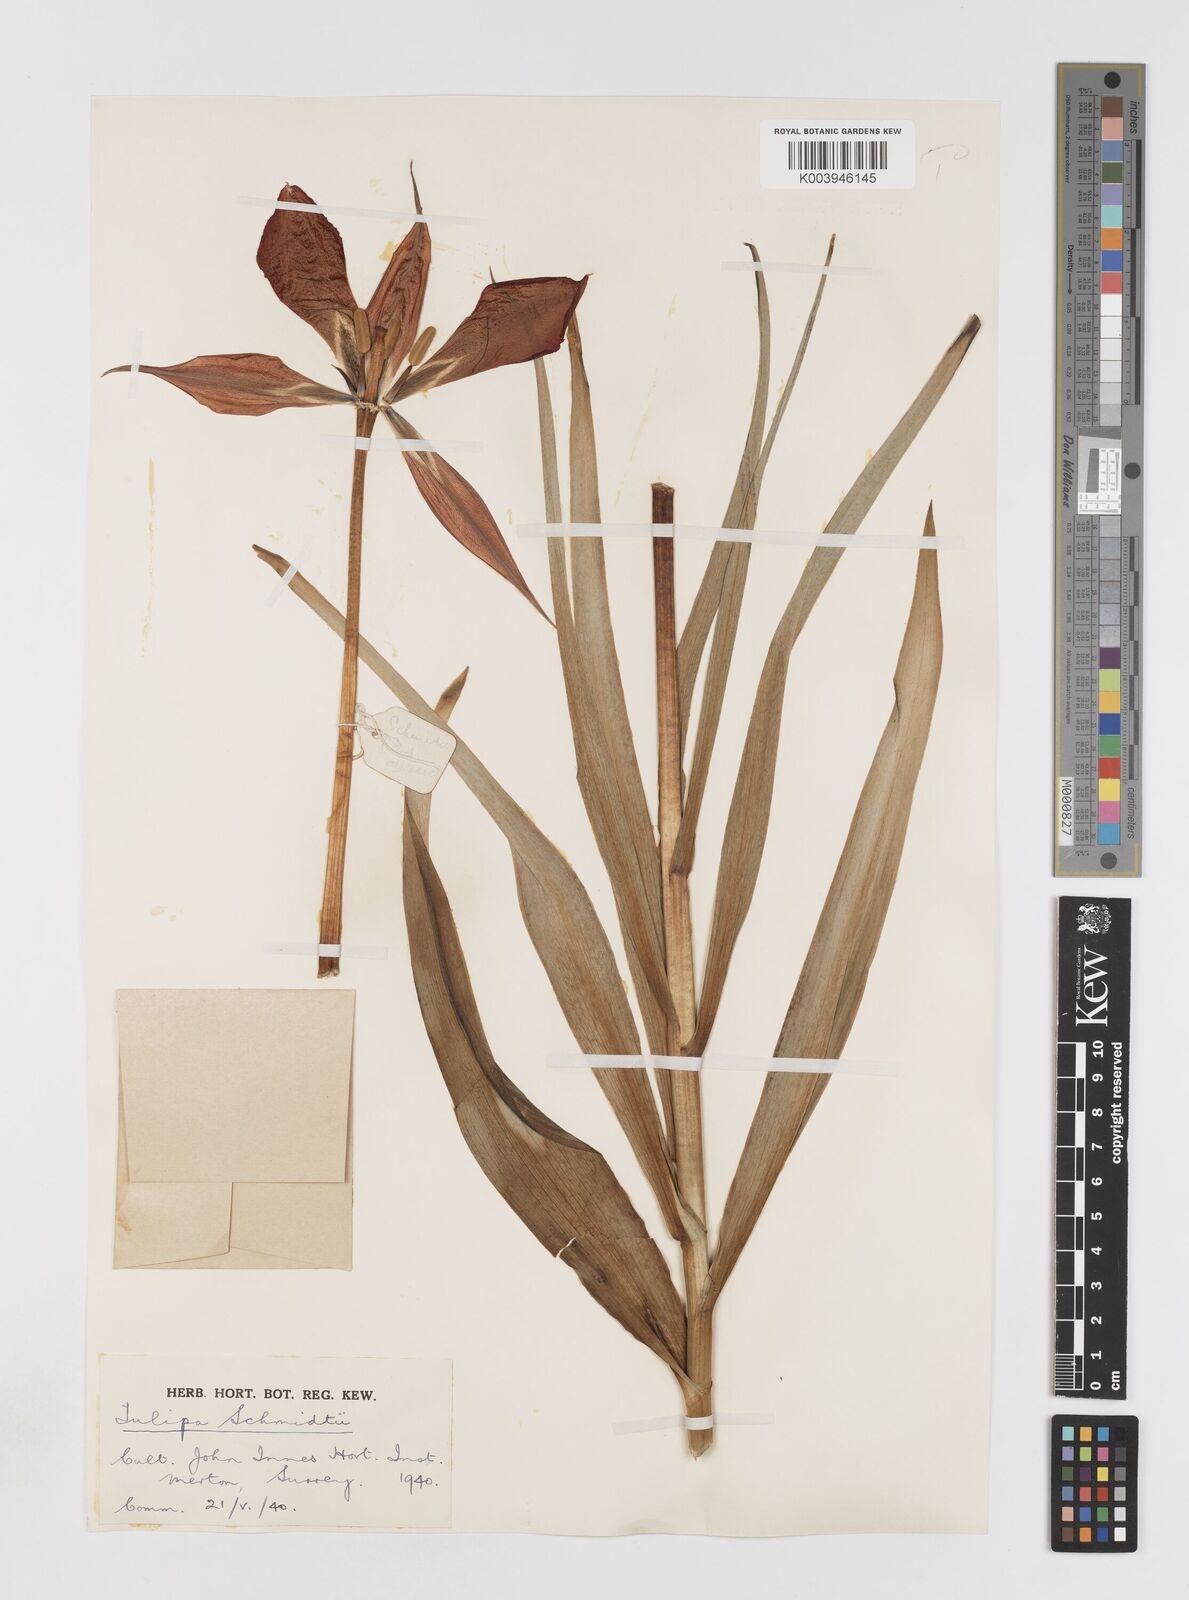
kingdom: Plantae
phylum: Tracheophyta
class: Liliopsida
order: Liliales
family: Liliaceae
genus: Tulipa
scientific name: Tulipa schmidtii
